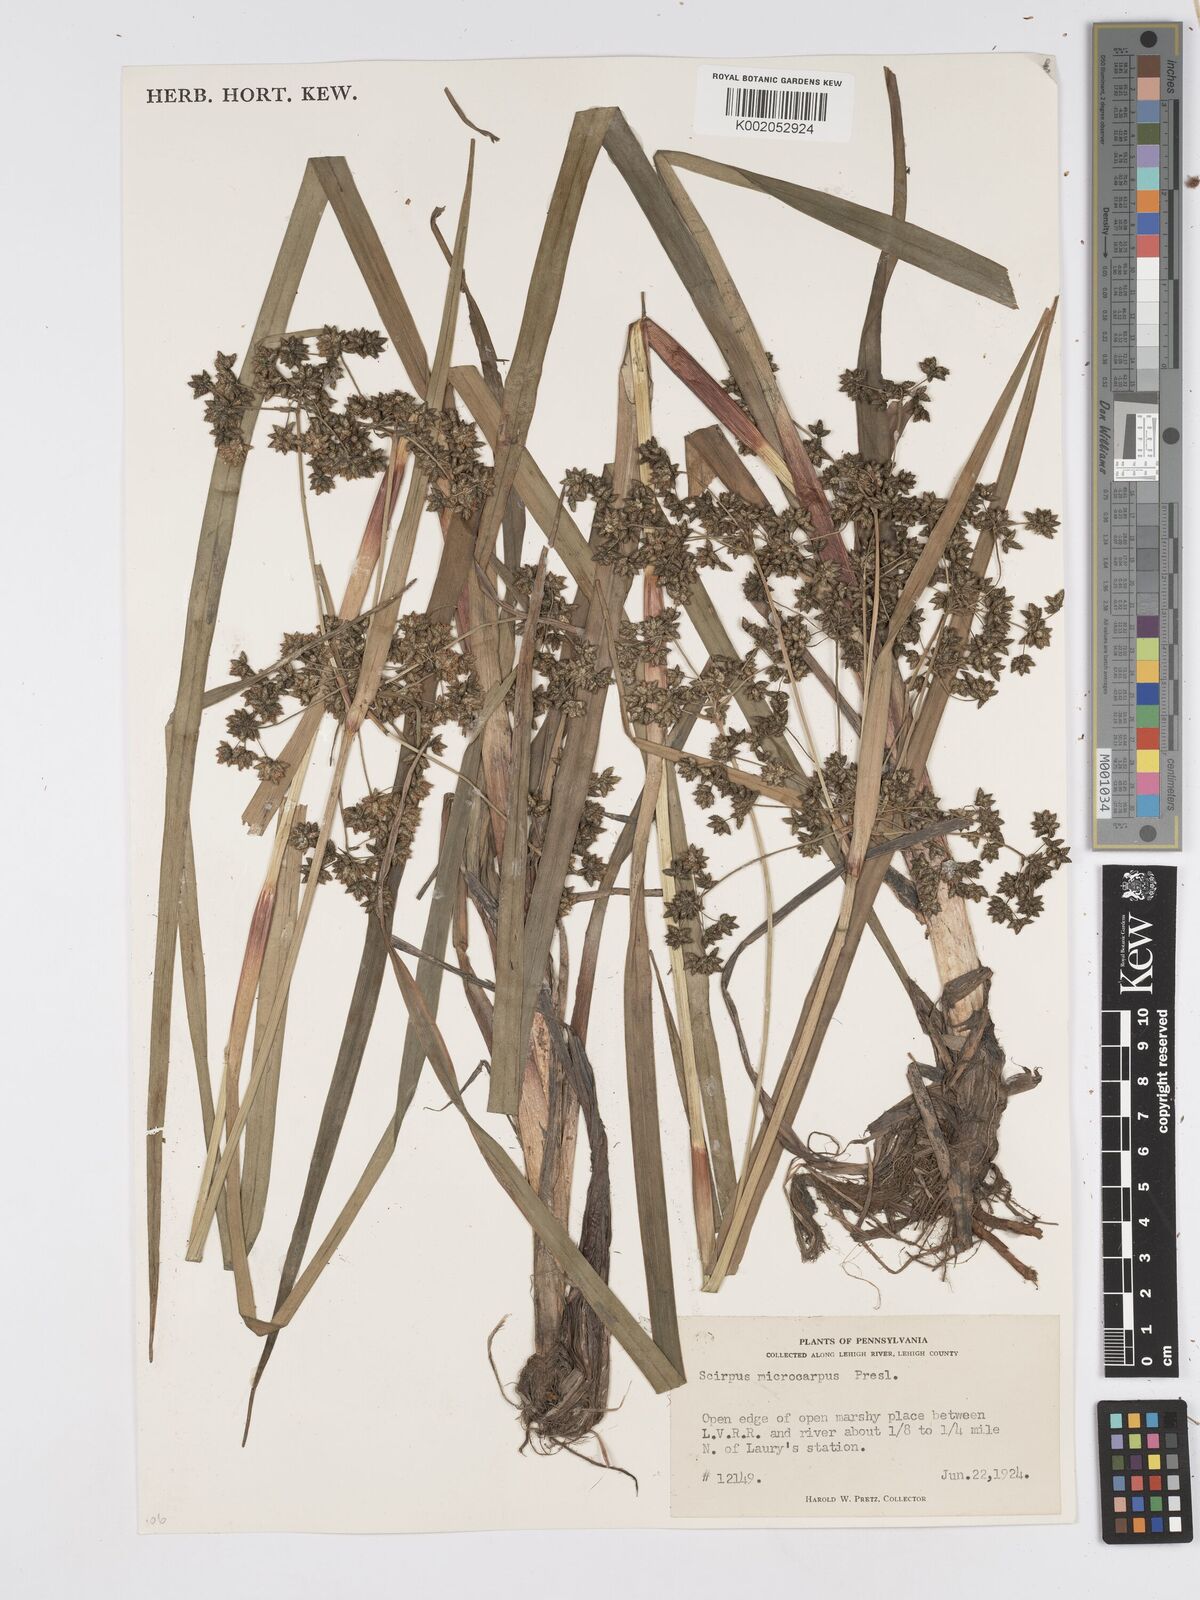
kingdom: Plantae
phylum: Tracheophyta
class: Liliopsida
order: Poales
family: Cyperaceae
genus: Scirpus
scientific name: Scirpus sylvaticus
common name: Wood club-rush
